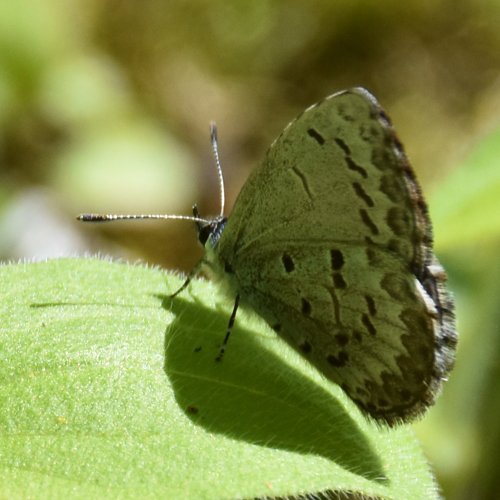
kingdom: Animalia
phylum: Arthropoda
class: Insecta
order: Lepidoptera
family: Lycaenidae
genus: Celastrina
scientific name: Celastrina
